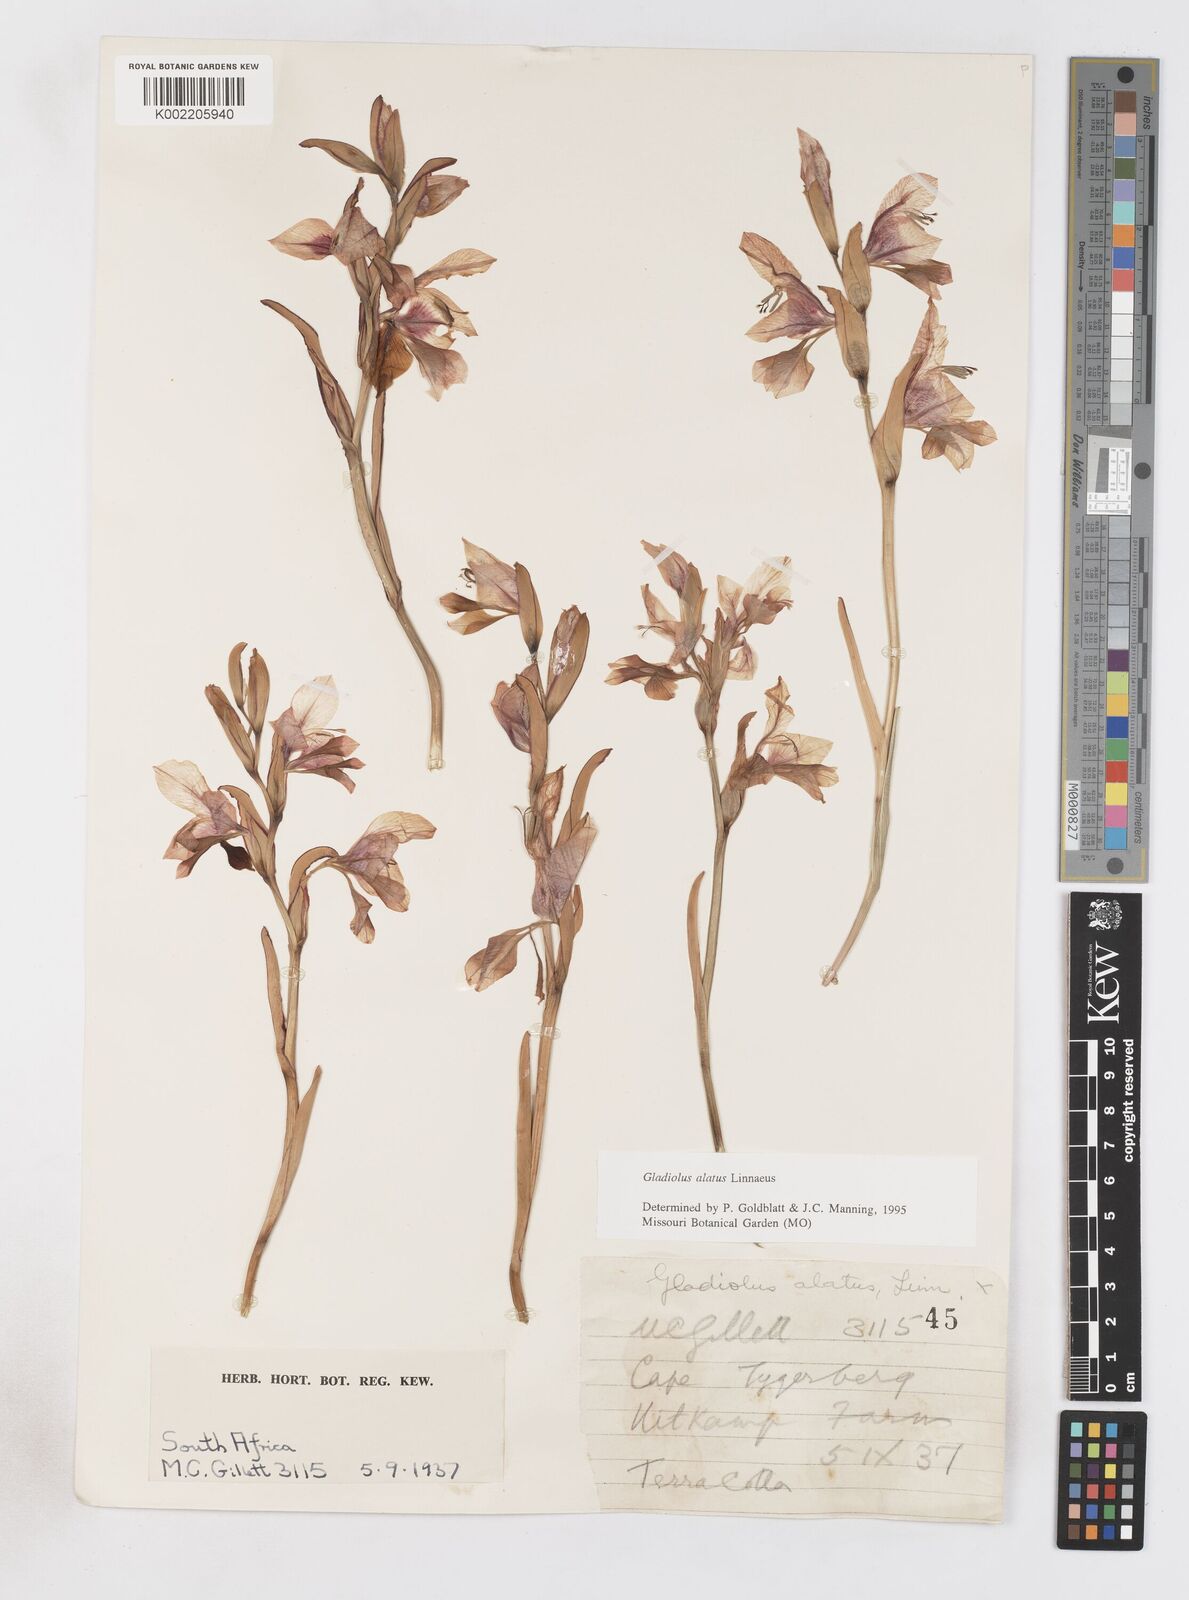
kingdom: Plantae
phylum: Tracheophyta
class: Liliopsida
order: Asparagales
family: Iridaceae
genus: Gladiolus
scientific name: Gladiolus alatus
